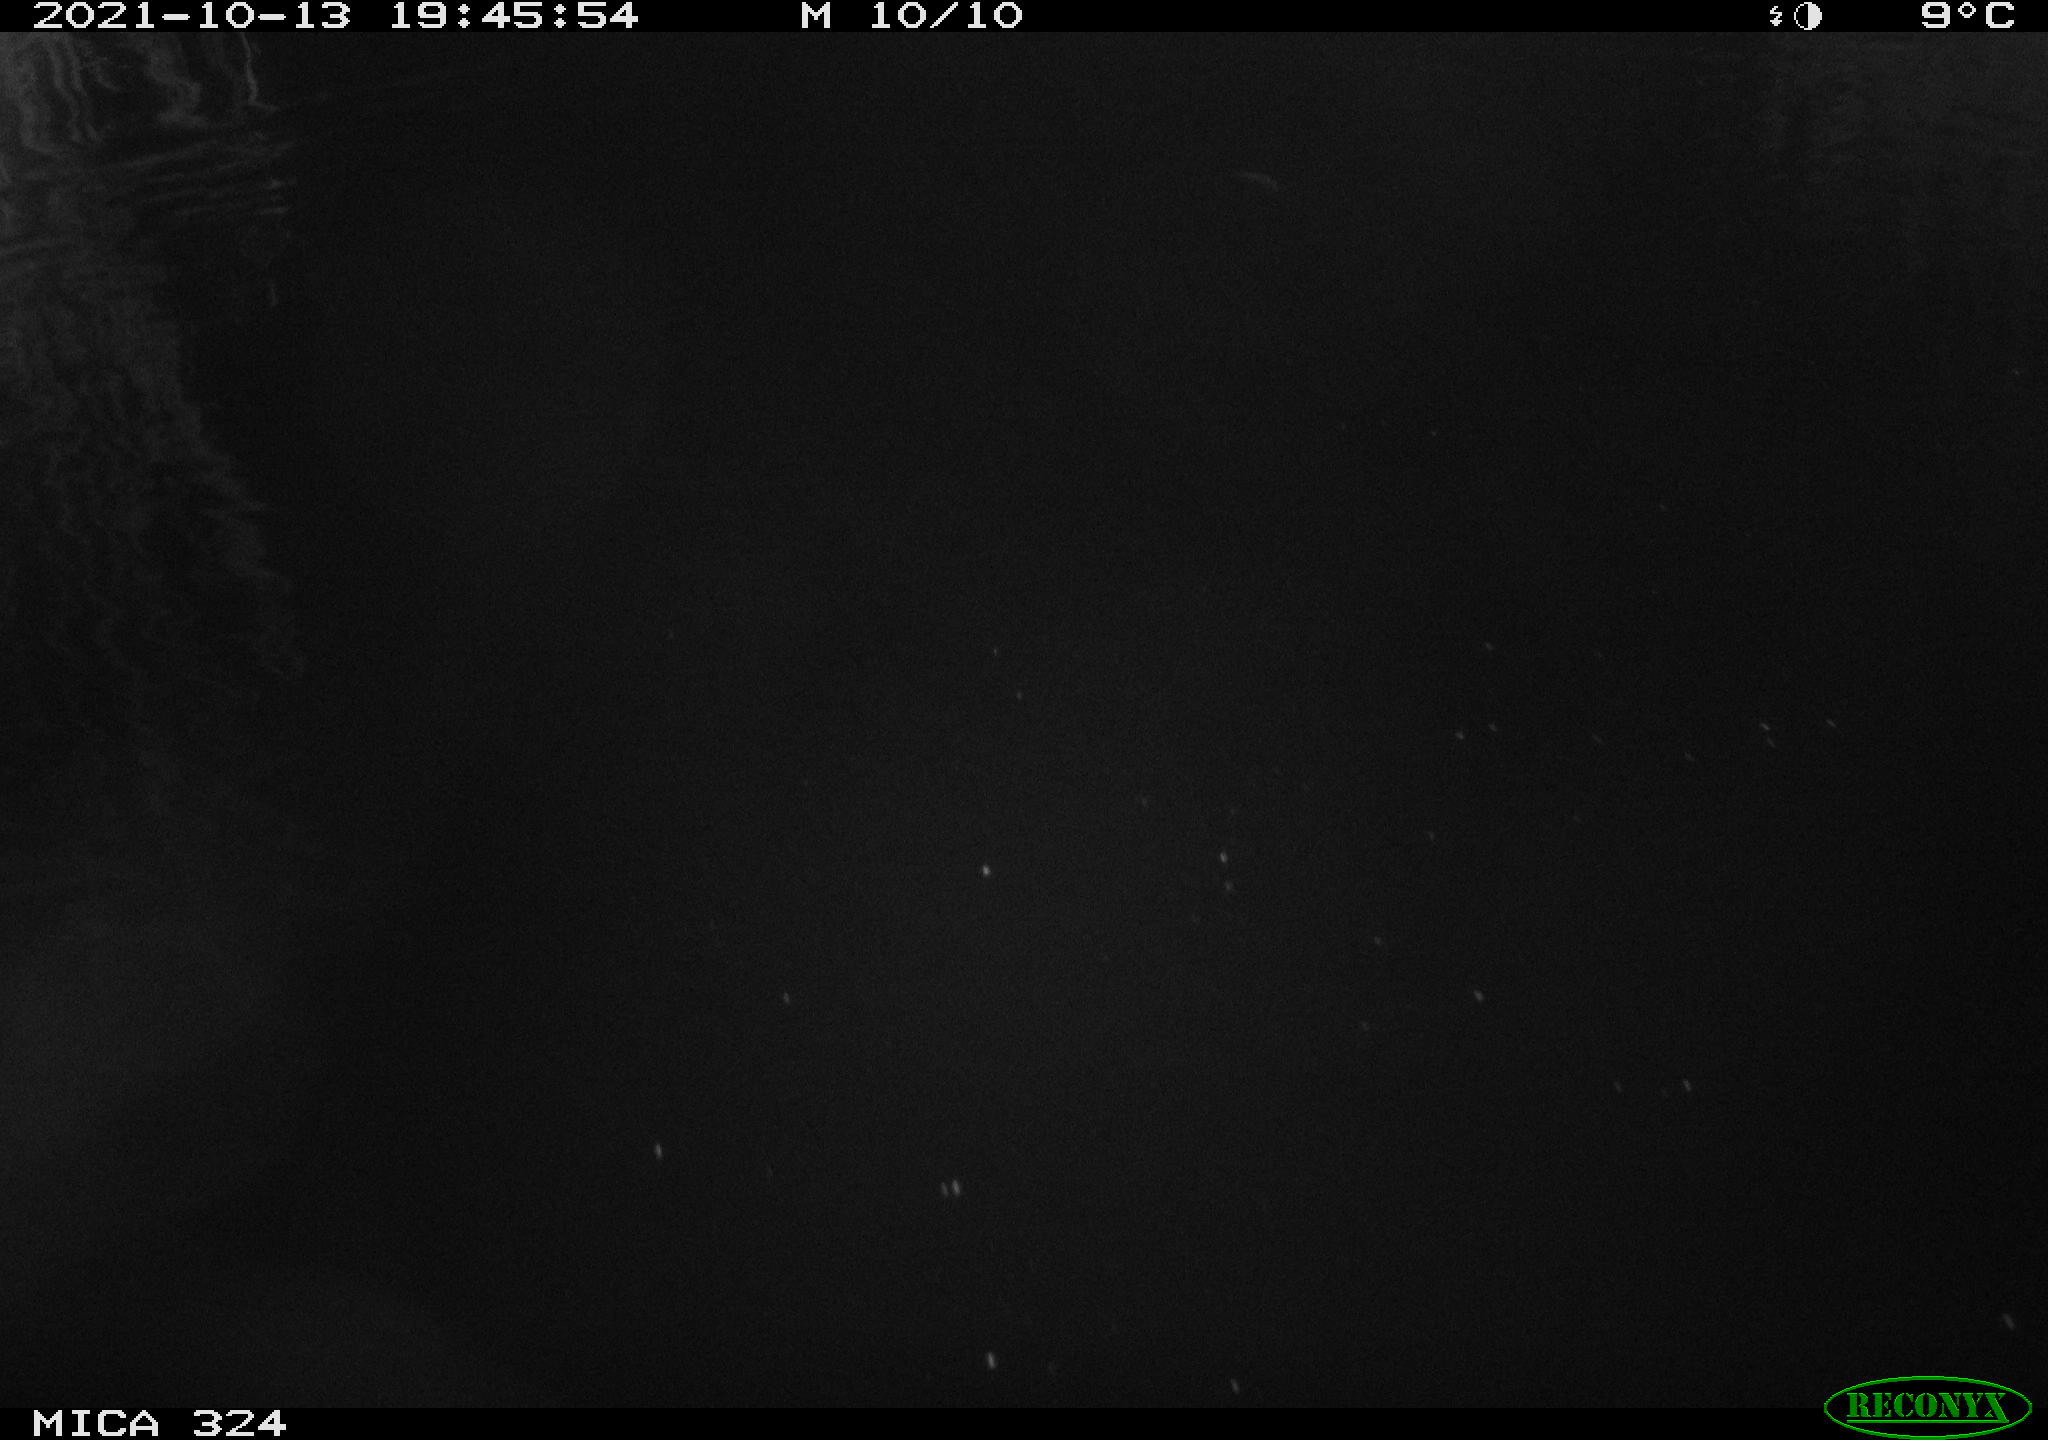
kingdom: Animalia
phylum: Chordata
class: Mammalia
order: Rodentia
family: Cricetidae
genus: Ondatra
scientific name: Ondatra zibethicus
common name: Muskrat
